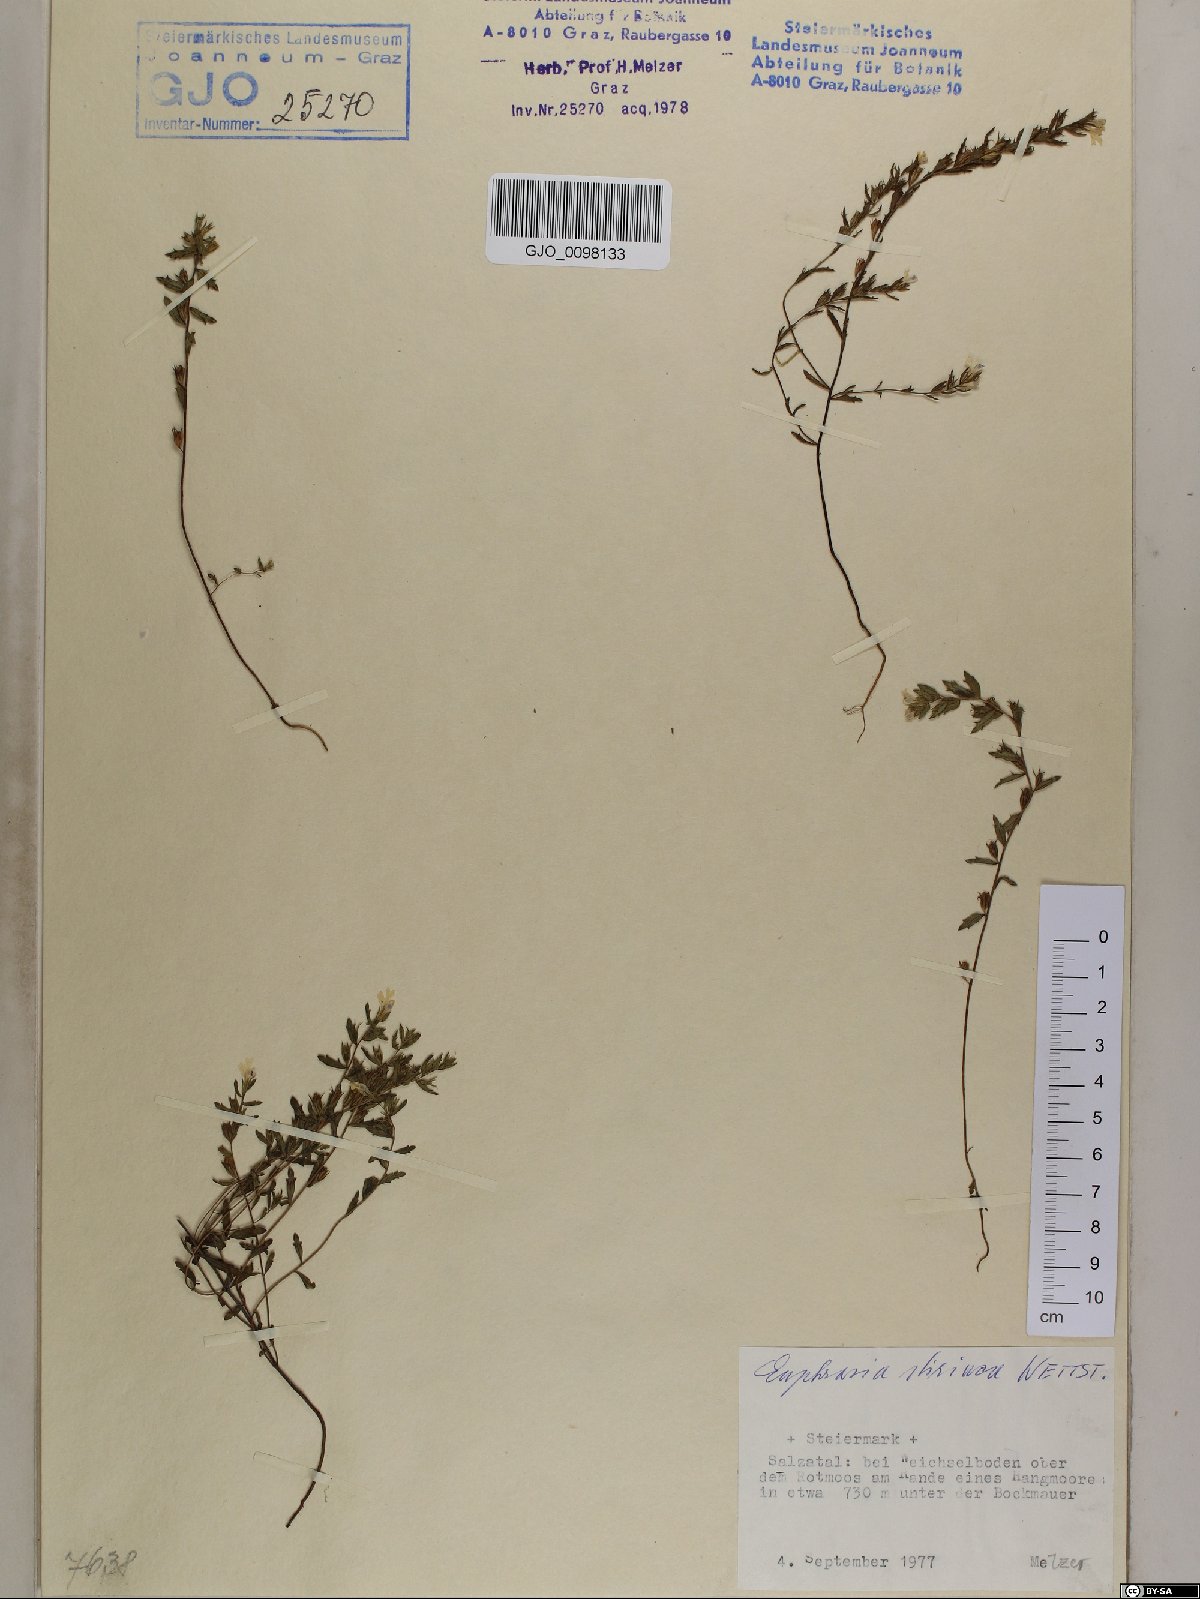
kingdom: Plantae
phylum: Tracheophyta
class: Magnoliopsida
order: Lamiales
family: Orobanchaceae
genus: Euphrasia
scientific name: Euphrasia cuspidata
